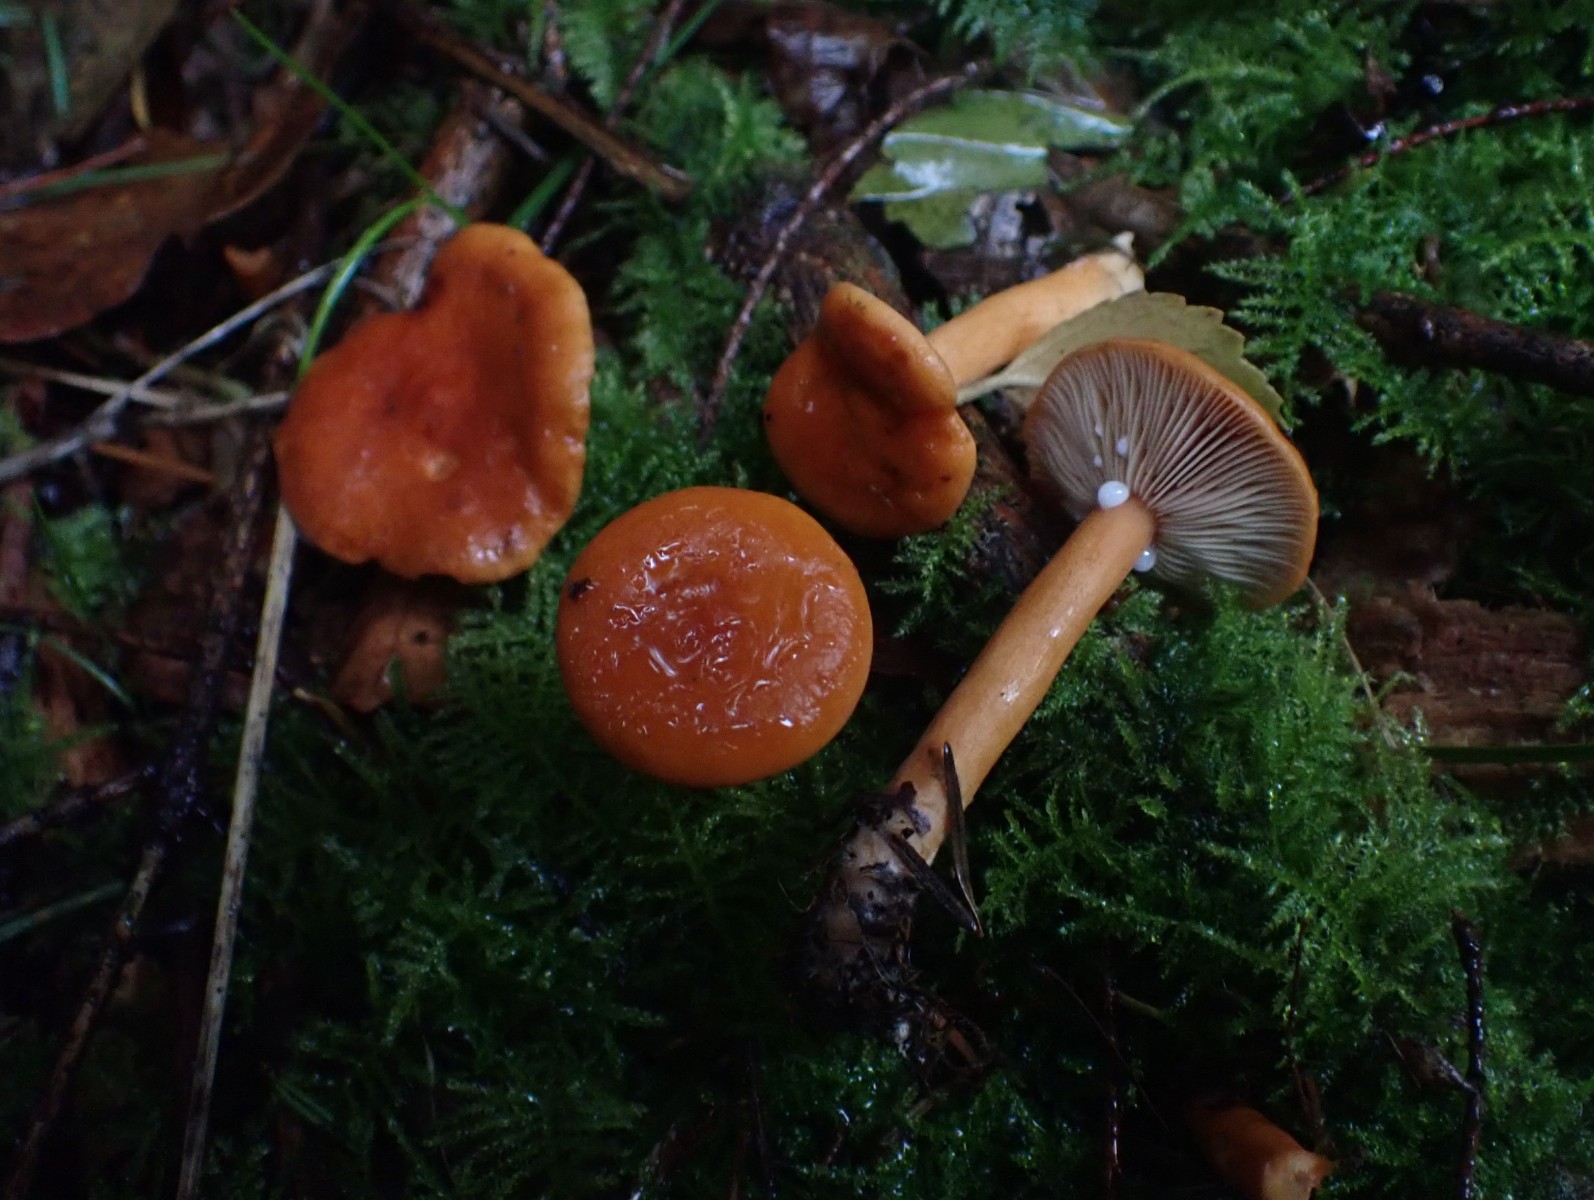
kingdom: Fungi
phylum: Basidiomycota
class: Agaricomycetes
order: Russulales
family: Russulaceae
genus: Lactarius
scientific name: Lactarius aurantiacus
